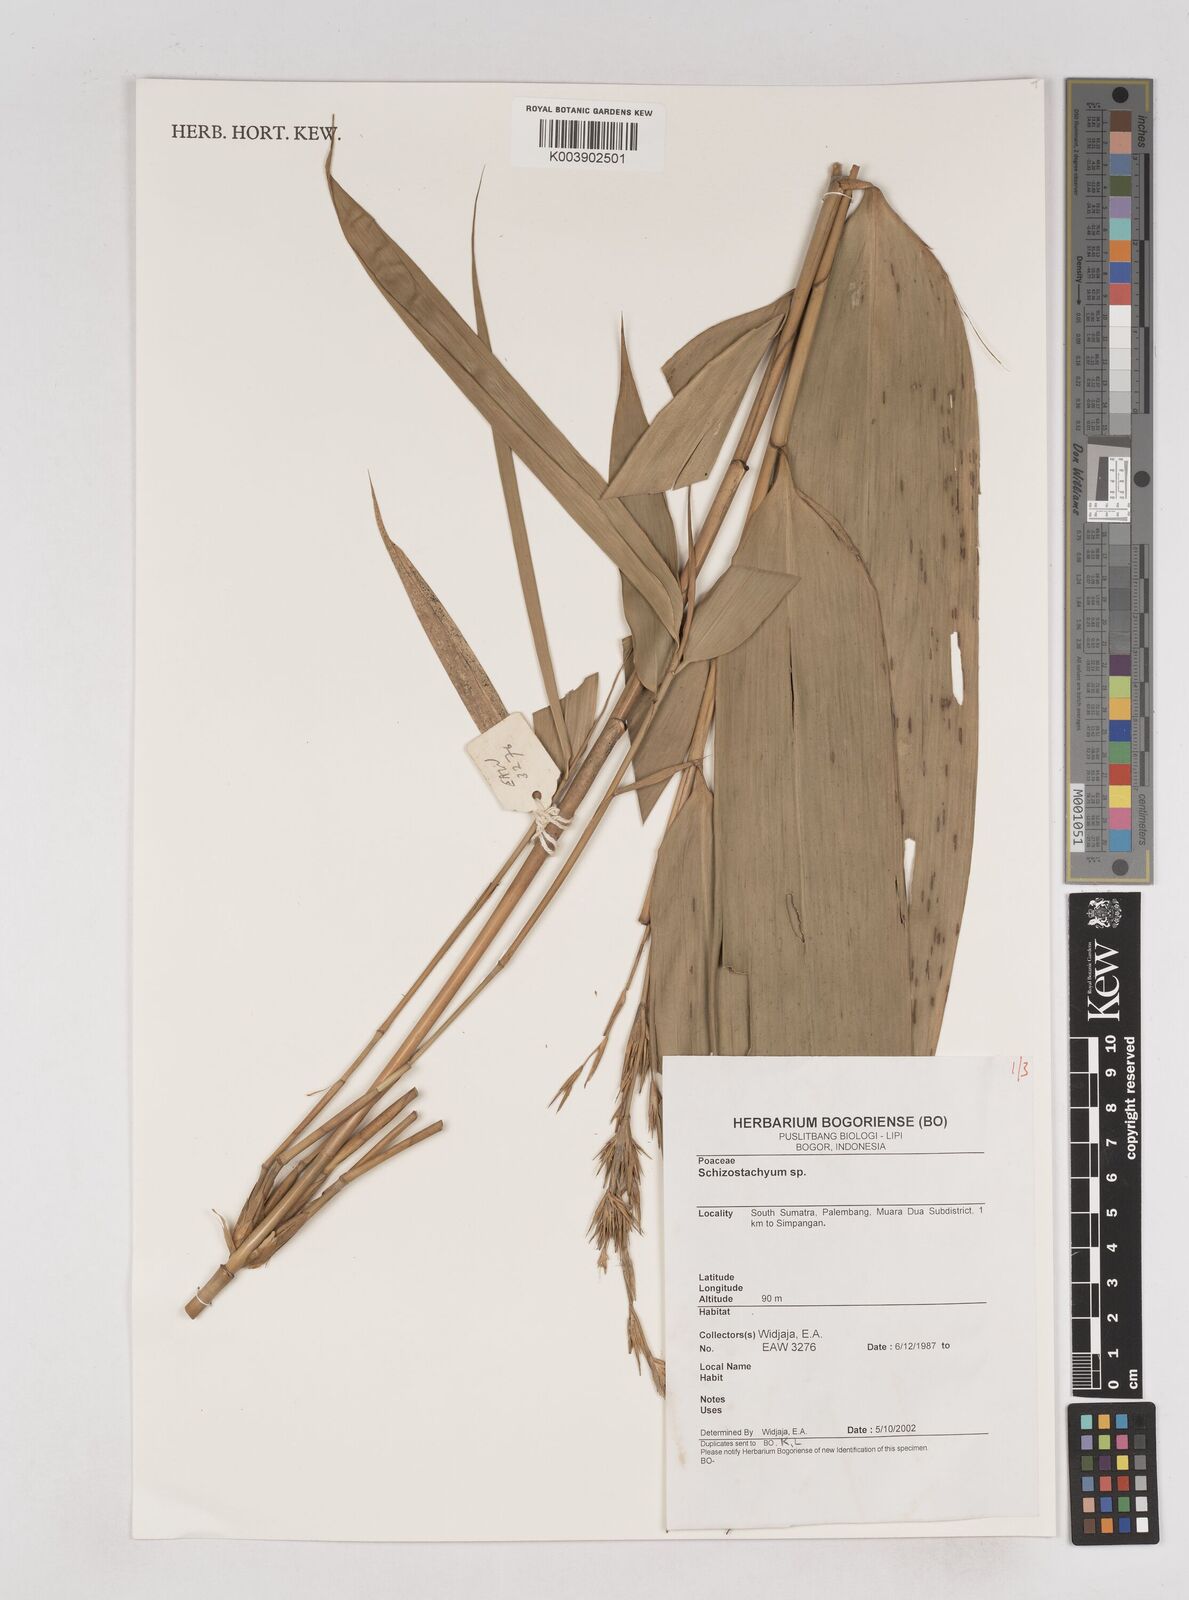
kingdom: Plantae
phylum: Tracheophyta
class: Liliopsida
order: Poales
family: Poaceae
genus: Schizostachyum
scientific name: Schizostachyum
